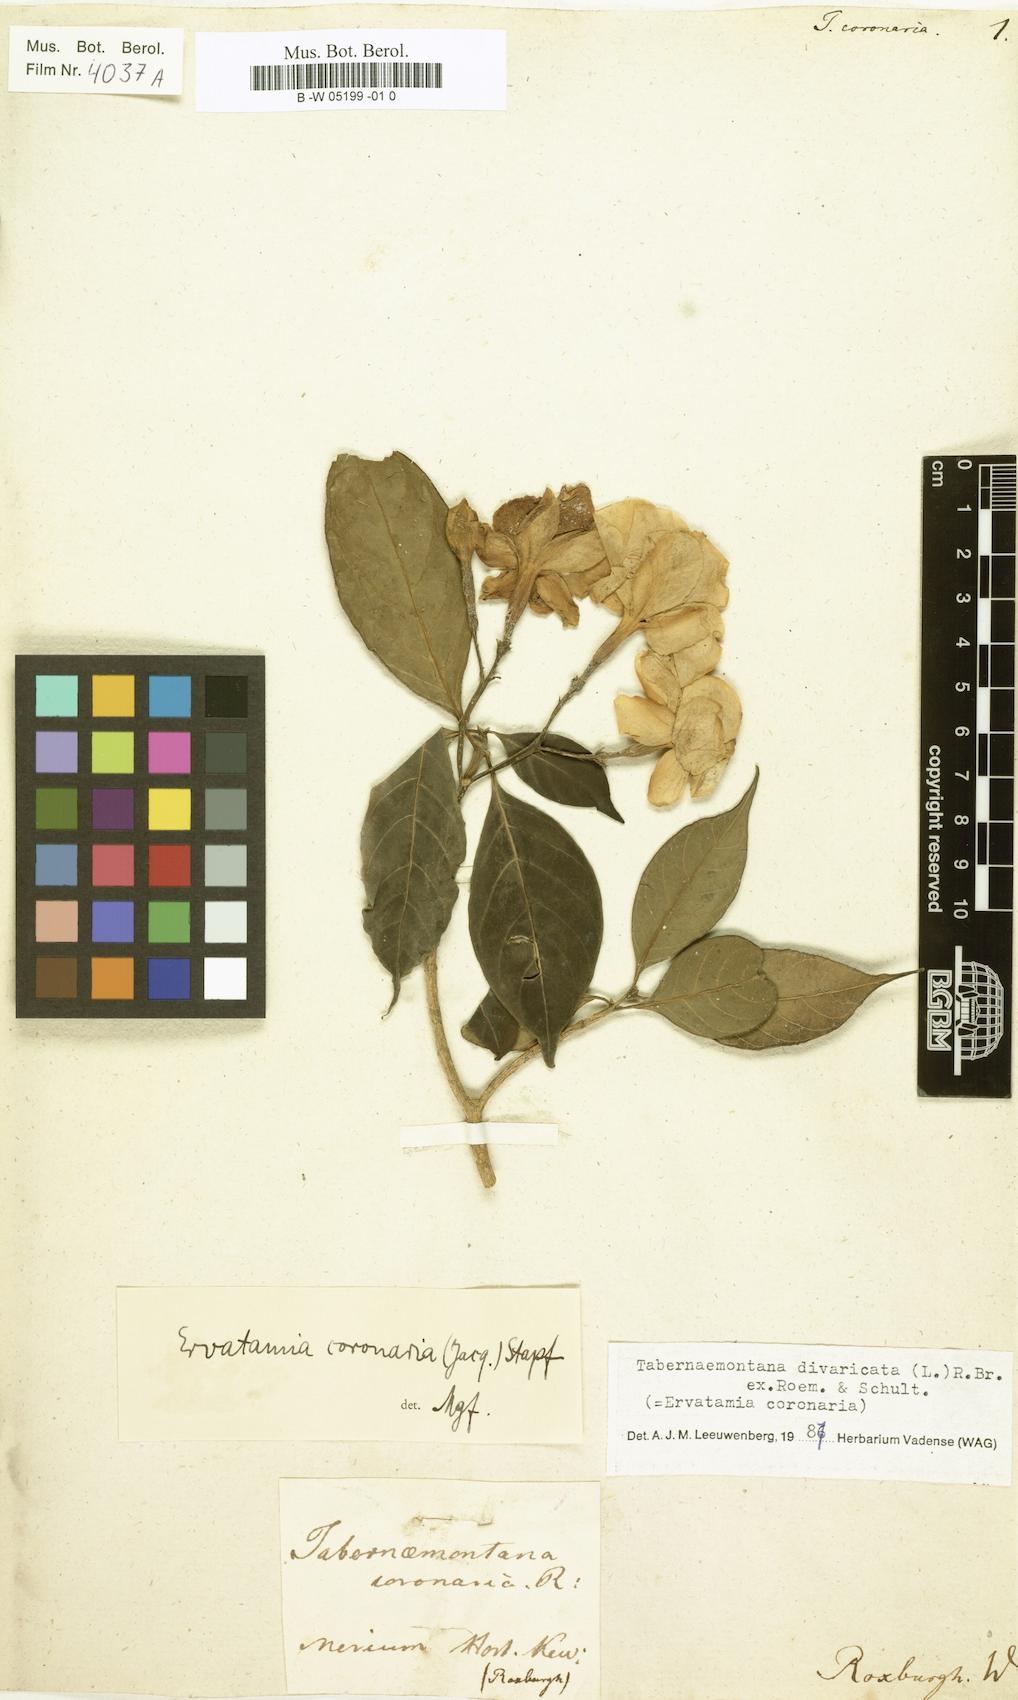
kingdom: Plantae
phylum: Tracheophyta
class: Magnoliopsida
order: Gentianales
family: Apocynaceae
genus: Tabernaemontana
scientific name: Tabernaemontana divaricata
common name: Pinwheelflower
